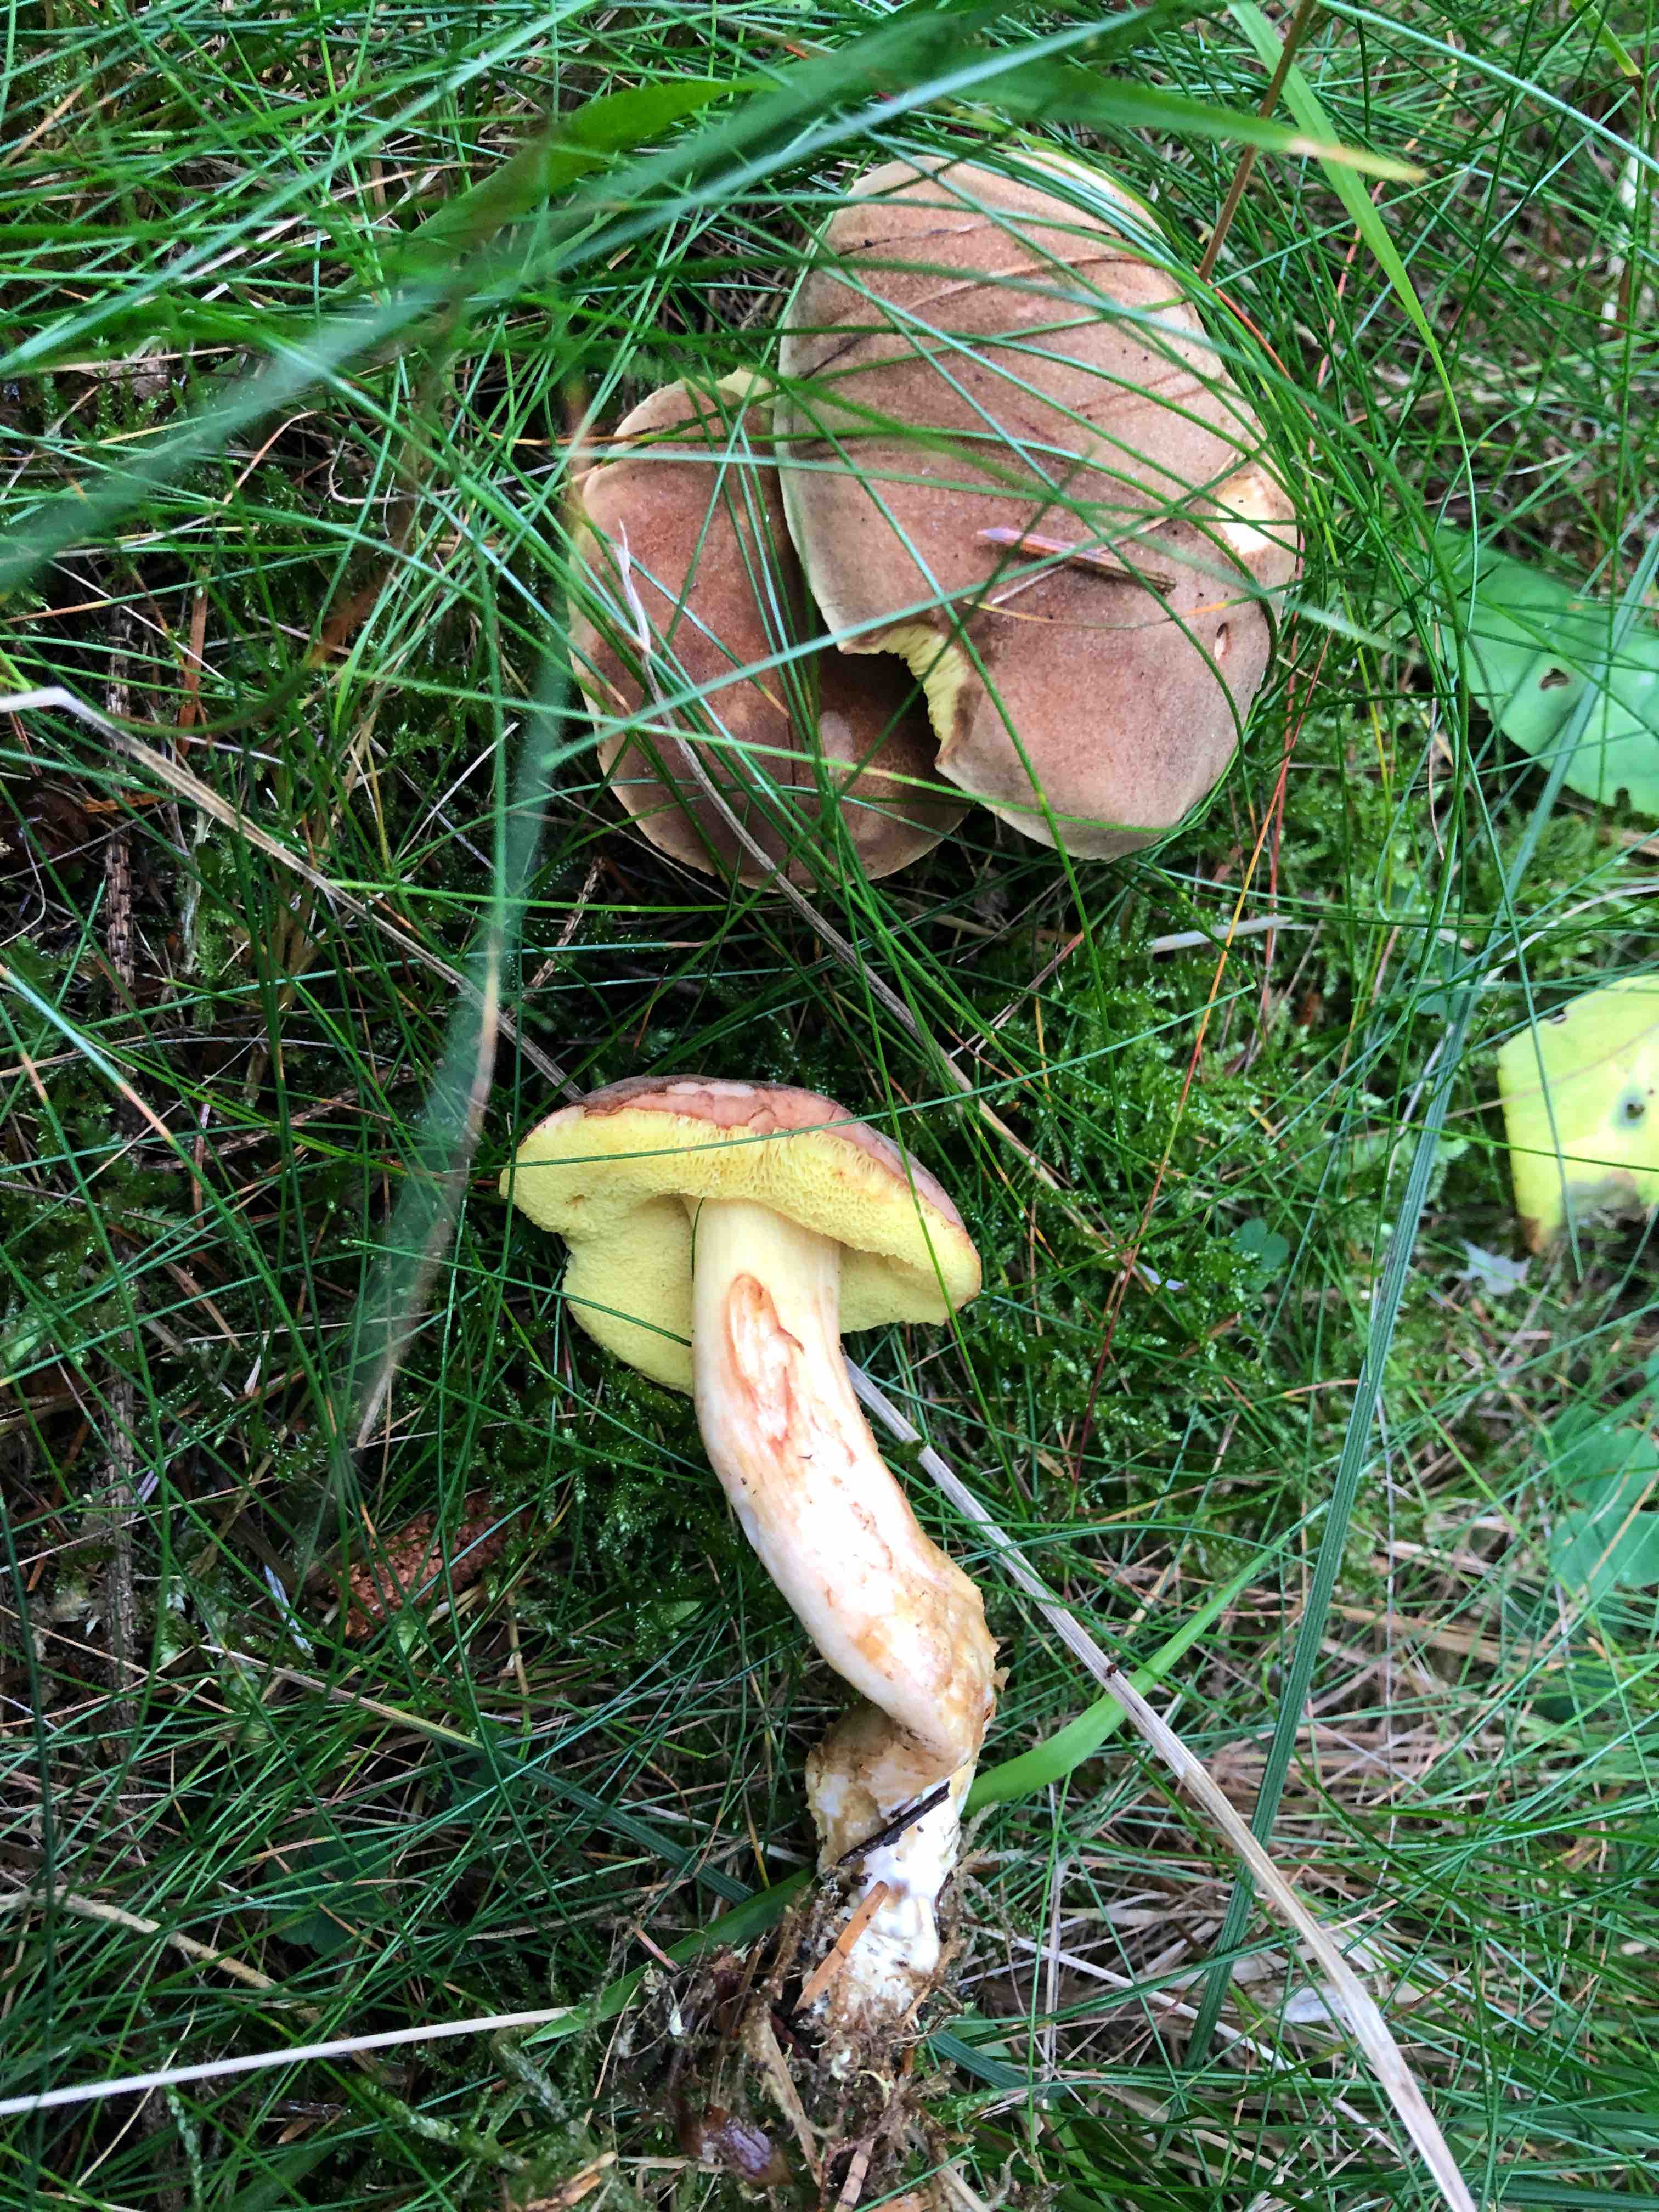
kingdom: Fungi
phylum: Basidiomycota
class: Agaricomycetes
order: Boletales
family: Boletaceae
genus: Xerocomus
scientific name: Xerocomus ferrugineus
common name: vaskeskinds-rørhat
